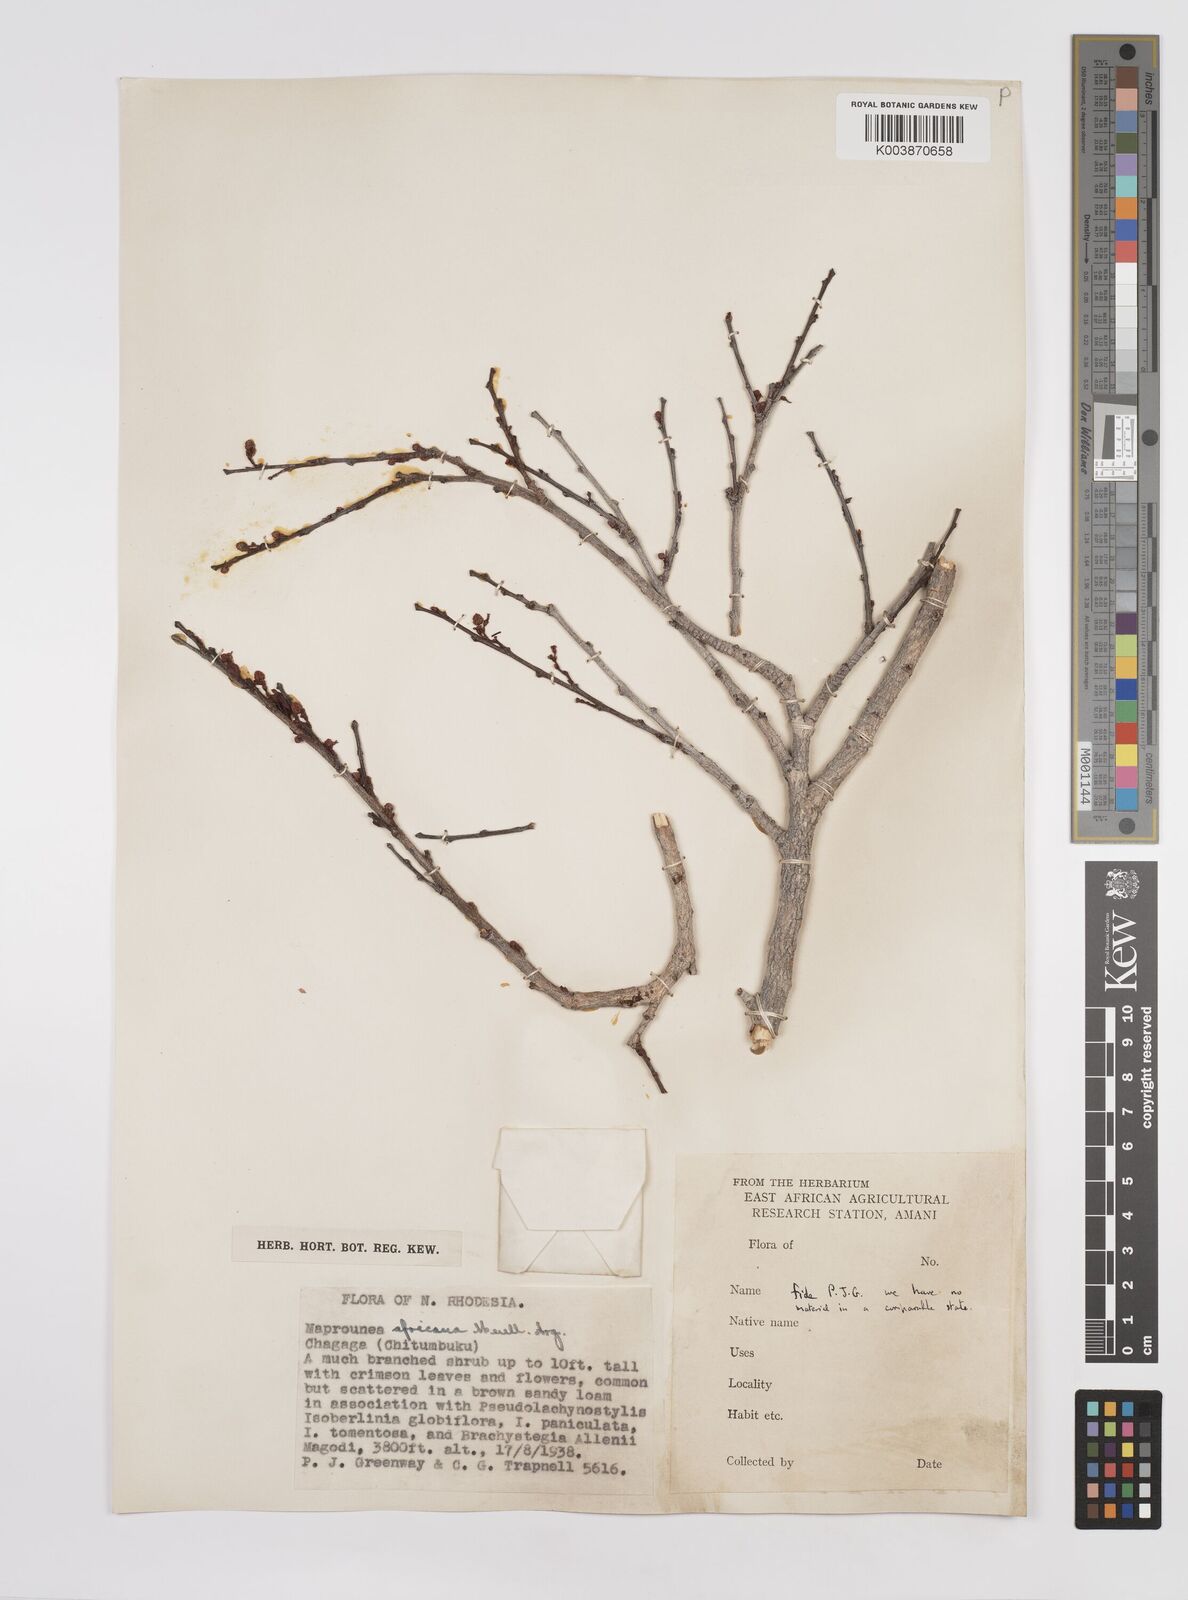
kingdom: Plantae
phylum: Tracheophyta
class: Magnoliopsida
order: Malpighiales
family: Euphorbiaceae
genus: Maprounea
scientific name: Maprounea africana
